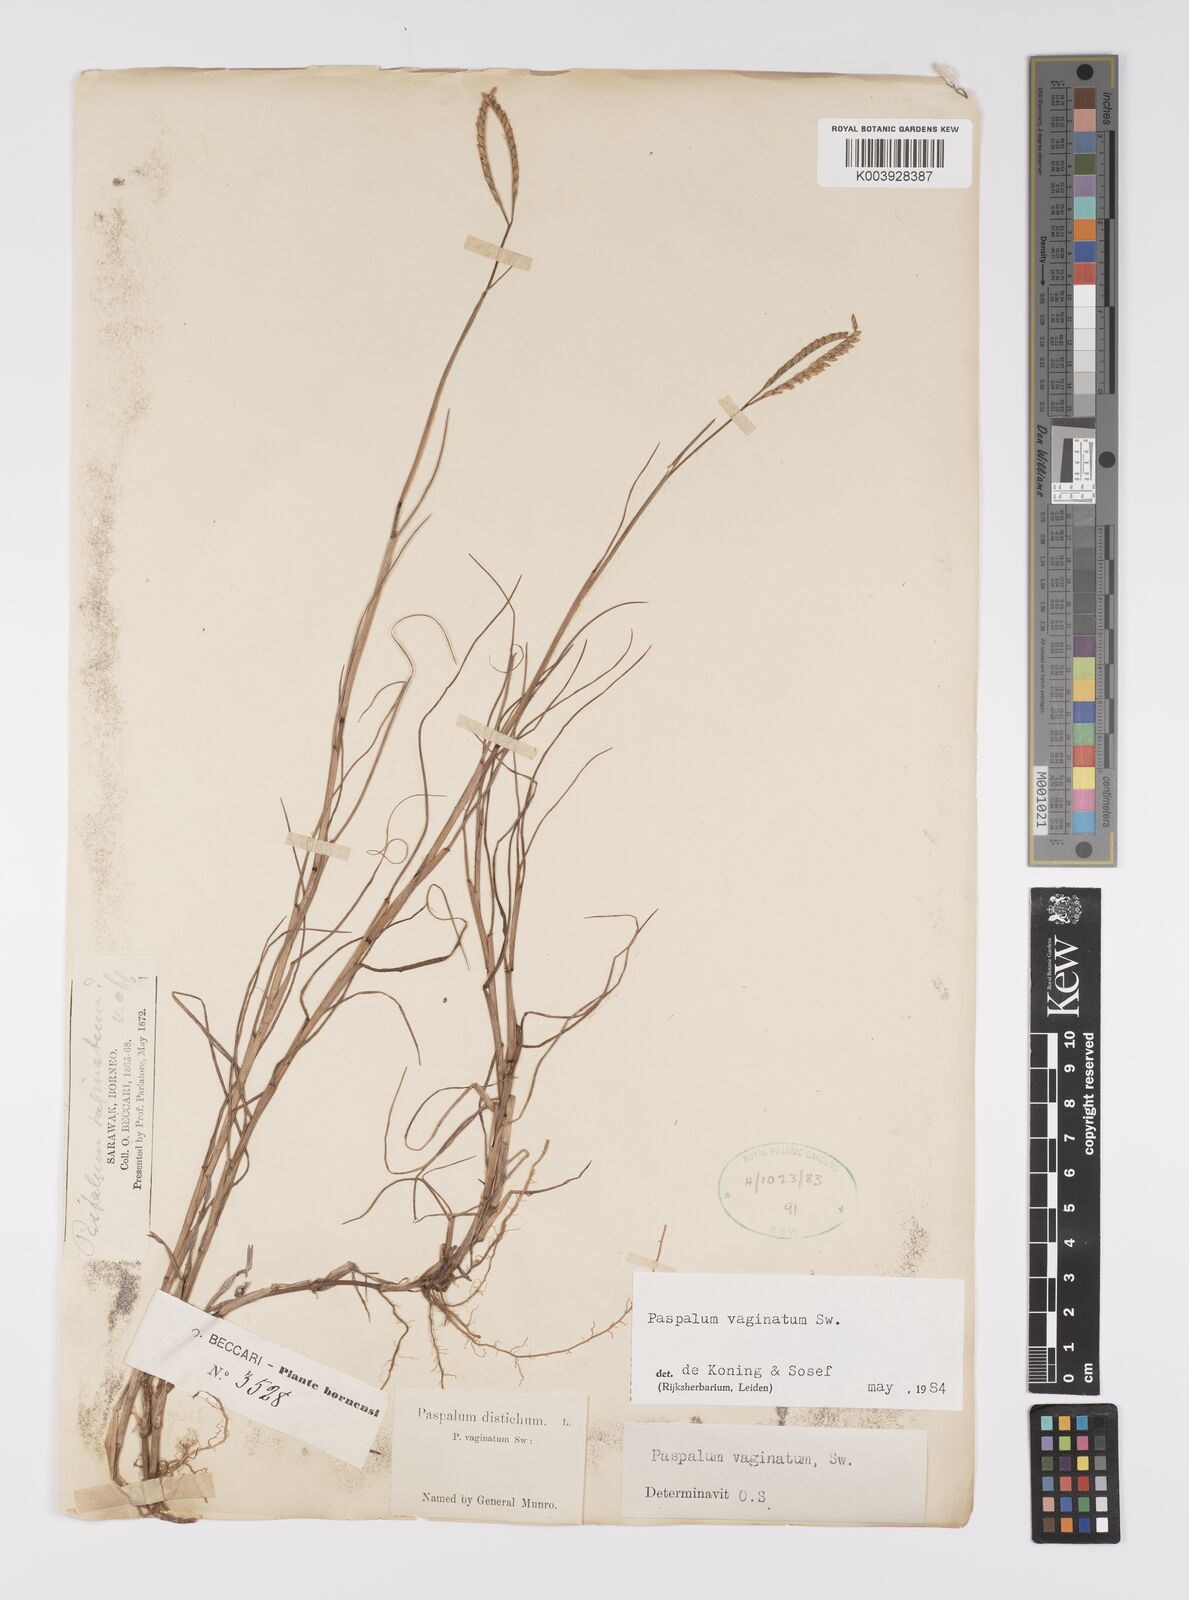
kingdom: Plantae
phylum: Tracheophyta
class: Liliopsida
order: Poales
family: Poaceae
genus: Paspalum
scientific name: Paspalum vaginatum
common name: Seashore paspalum
